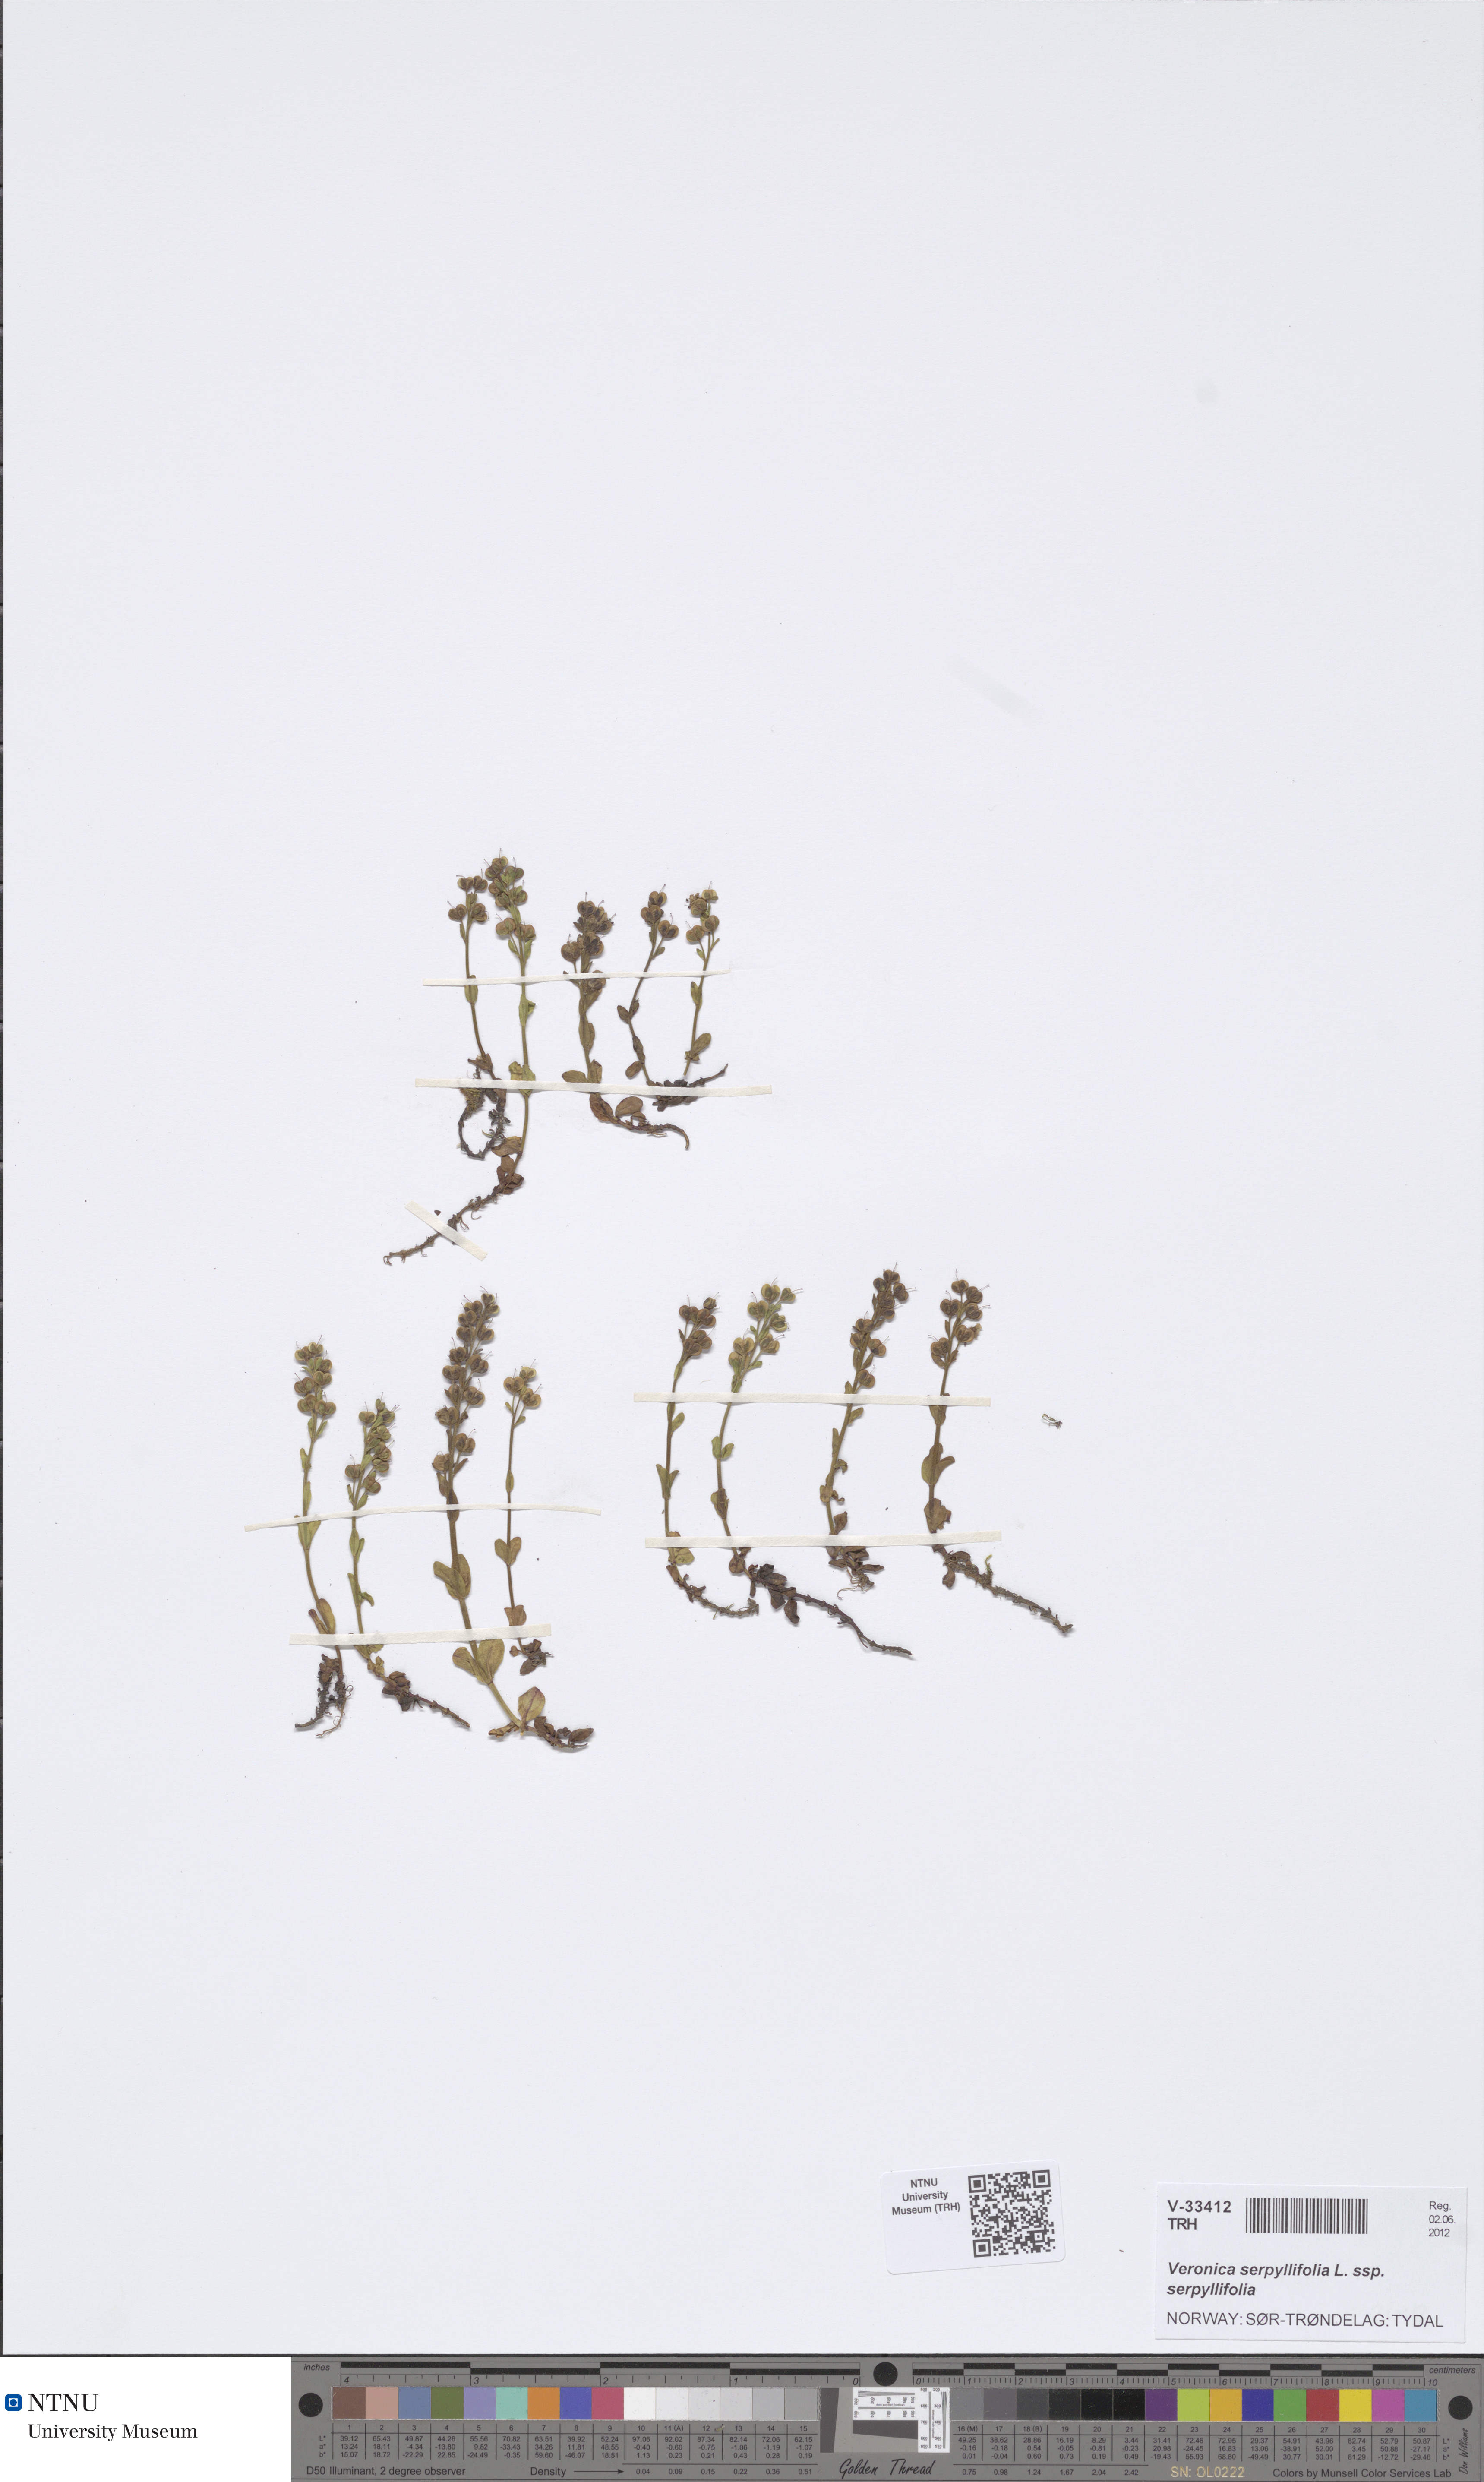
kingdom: Plantae
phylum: Tracheophyta
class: Magnoliopsida
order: Lamiales
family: Plantaginaceae
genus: Veronica
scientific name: Veronica serpyllifolia
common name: Thyme-leaved speedwell
